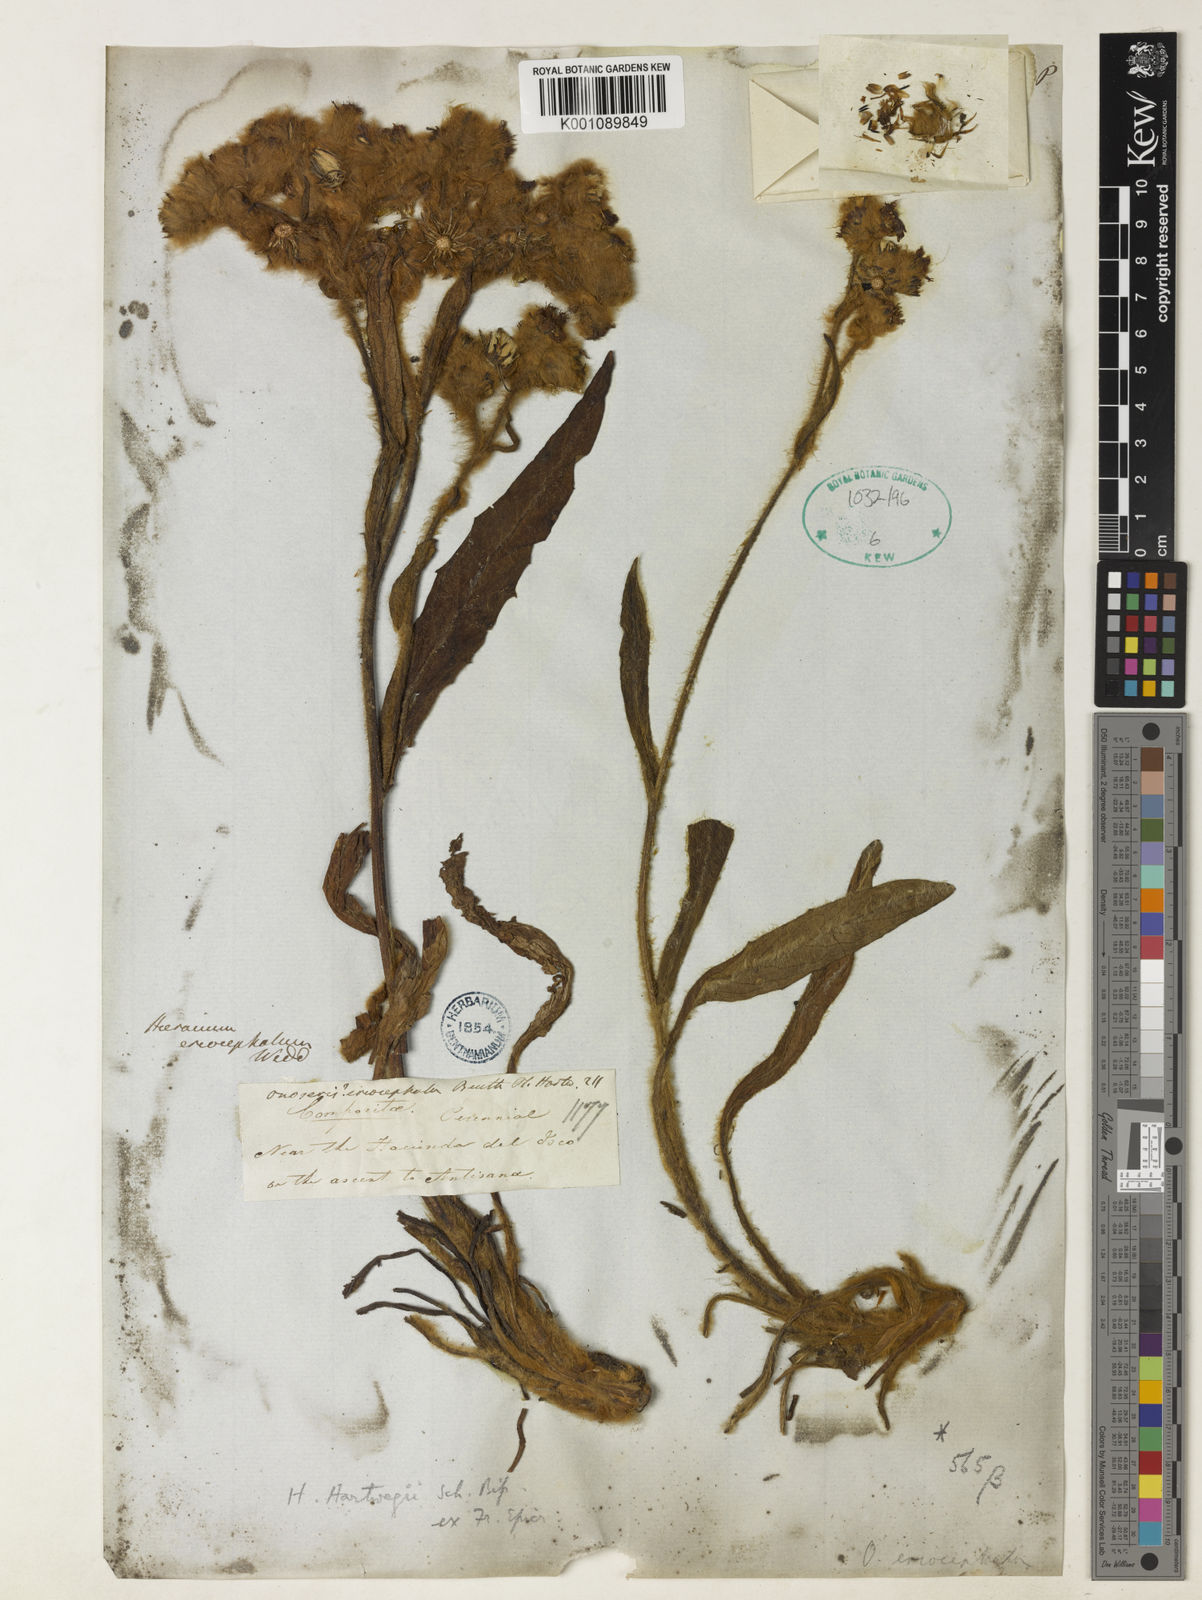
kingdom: Plantae
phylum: Tracheophyta
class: Magnoliopsida
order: Asterales
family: Asteraceae
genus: Hieracium
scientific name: Hieracium
